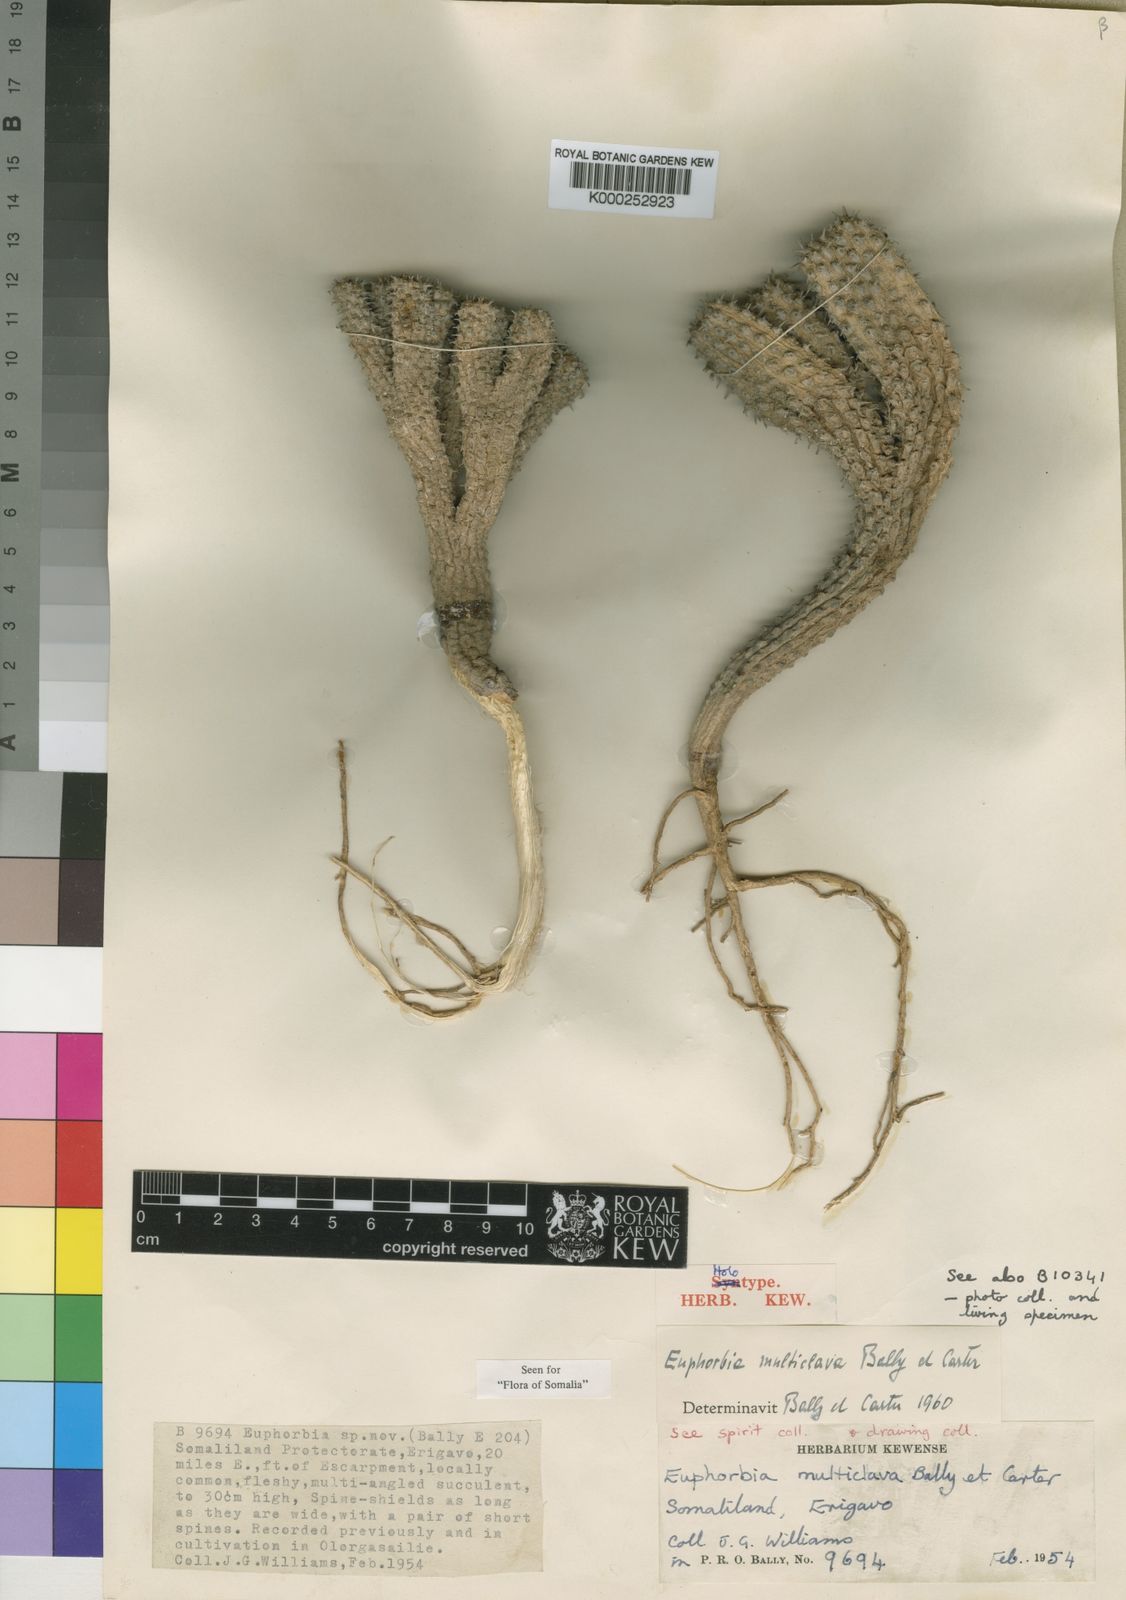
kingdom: Plantae
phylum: Tracheophyta
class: Magnoliopsida
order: Malpighiales
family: Euphorbiaceae
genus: Euphorbia
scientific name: Euphorbia multiclava
